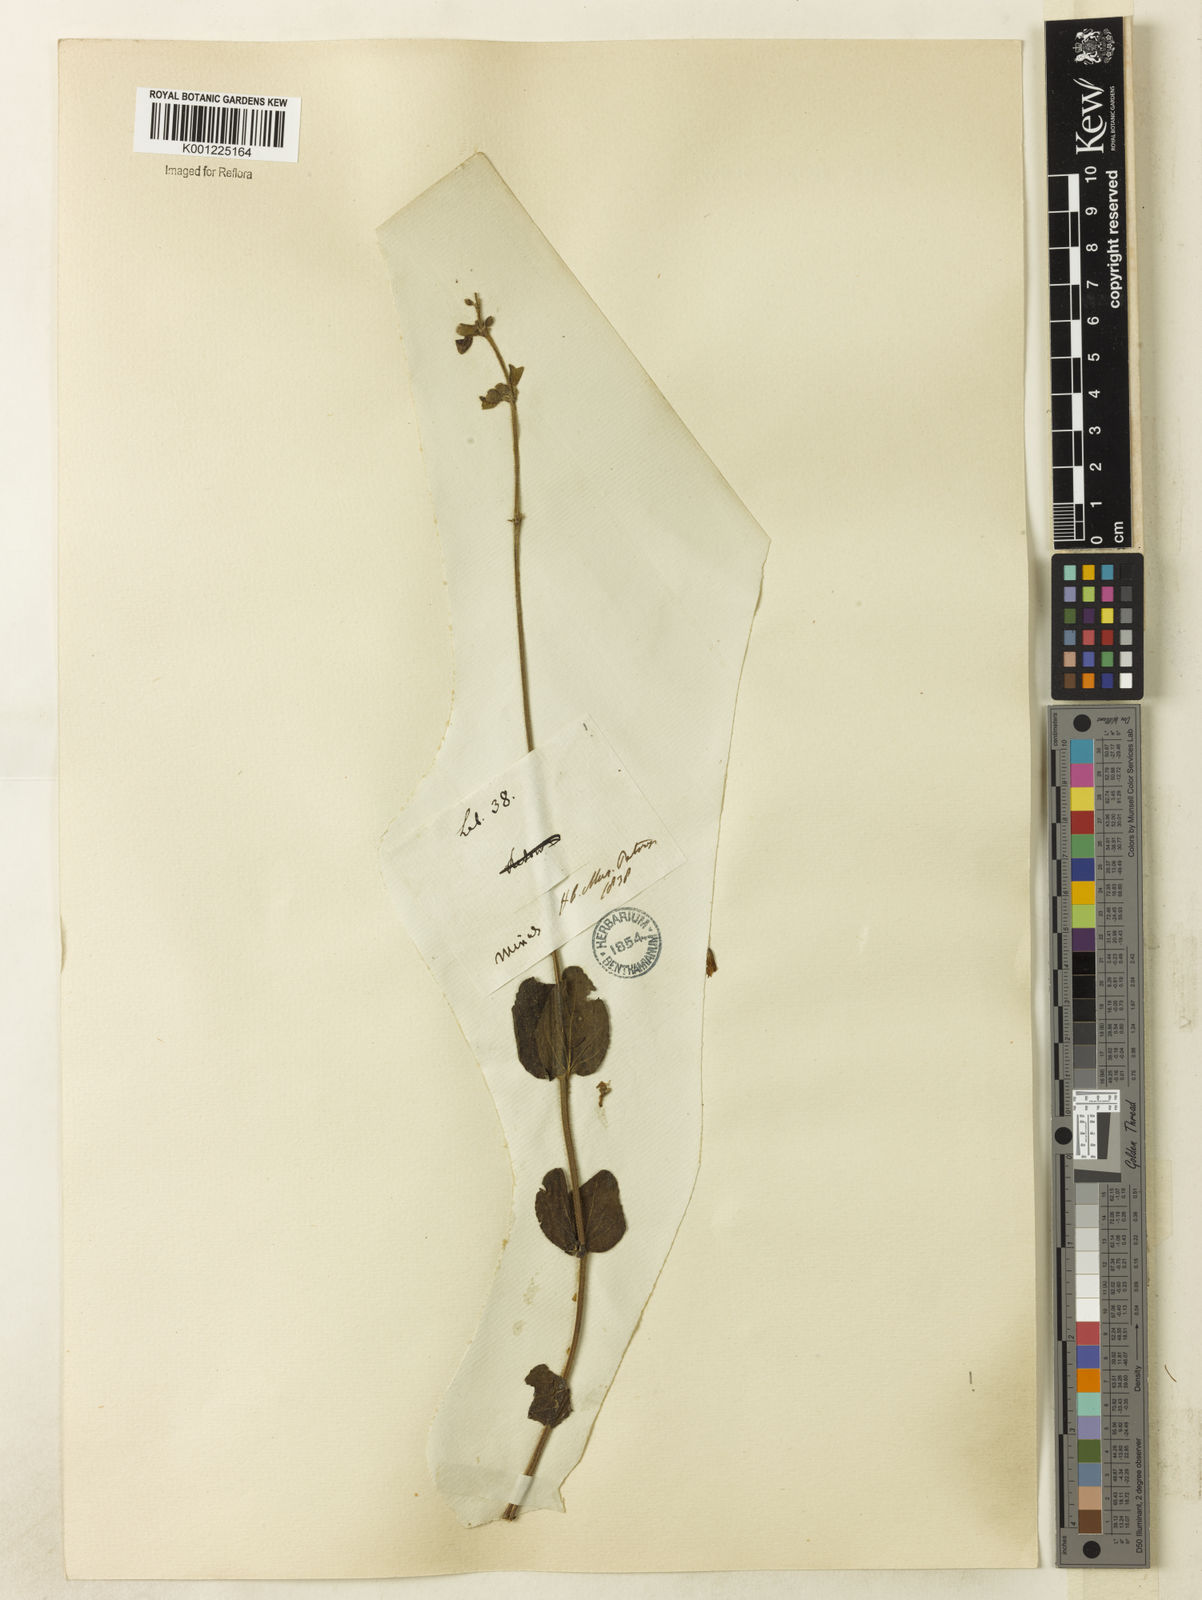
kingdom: Plantae
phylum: Tracheophyta
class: Magnoliopsida
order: Lamiales
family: Lamiaceae
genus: Salvia
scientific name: Salvia brevipes
